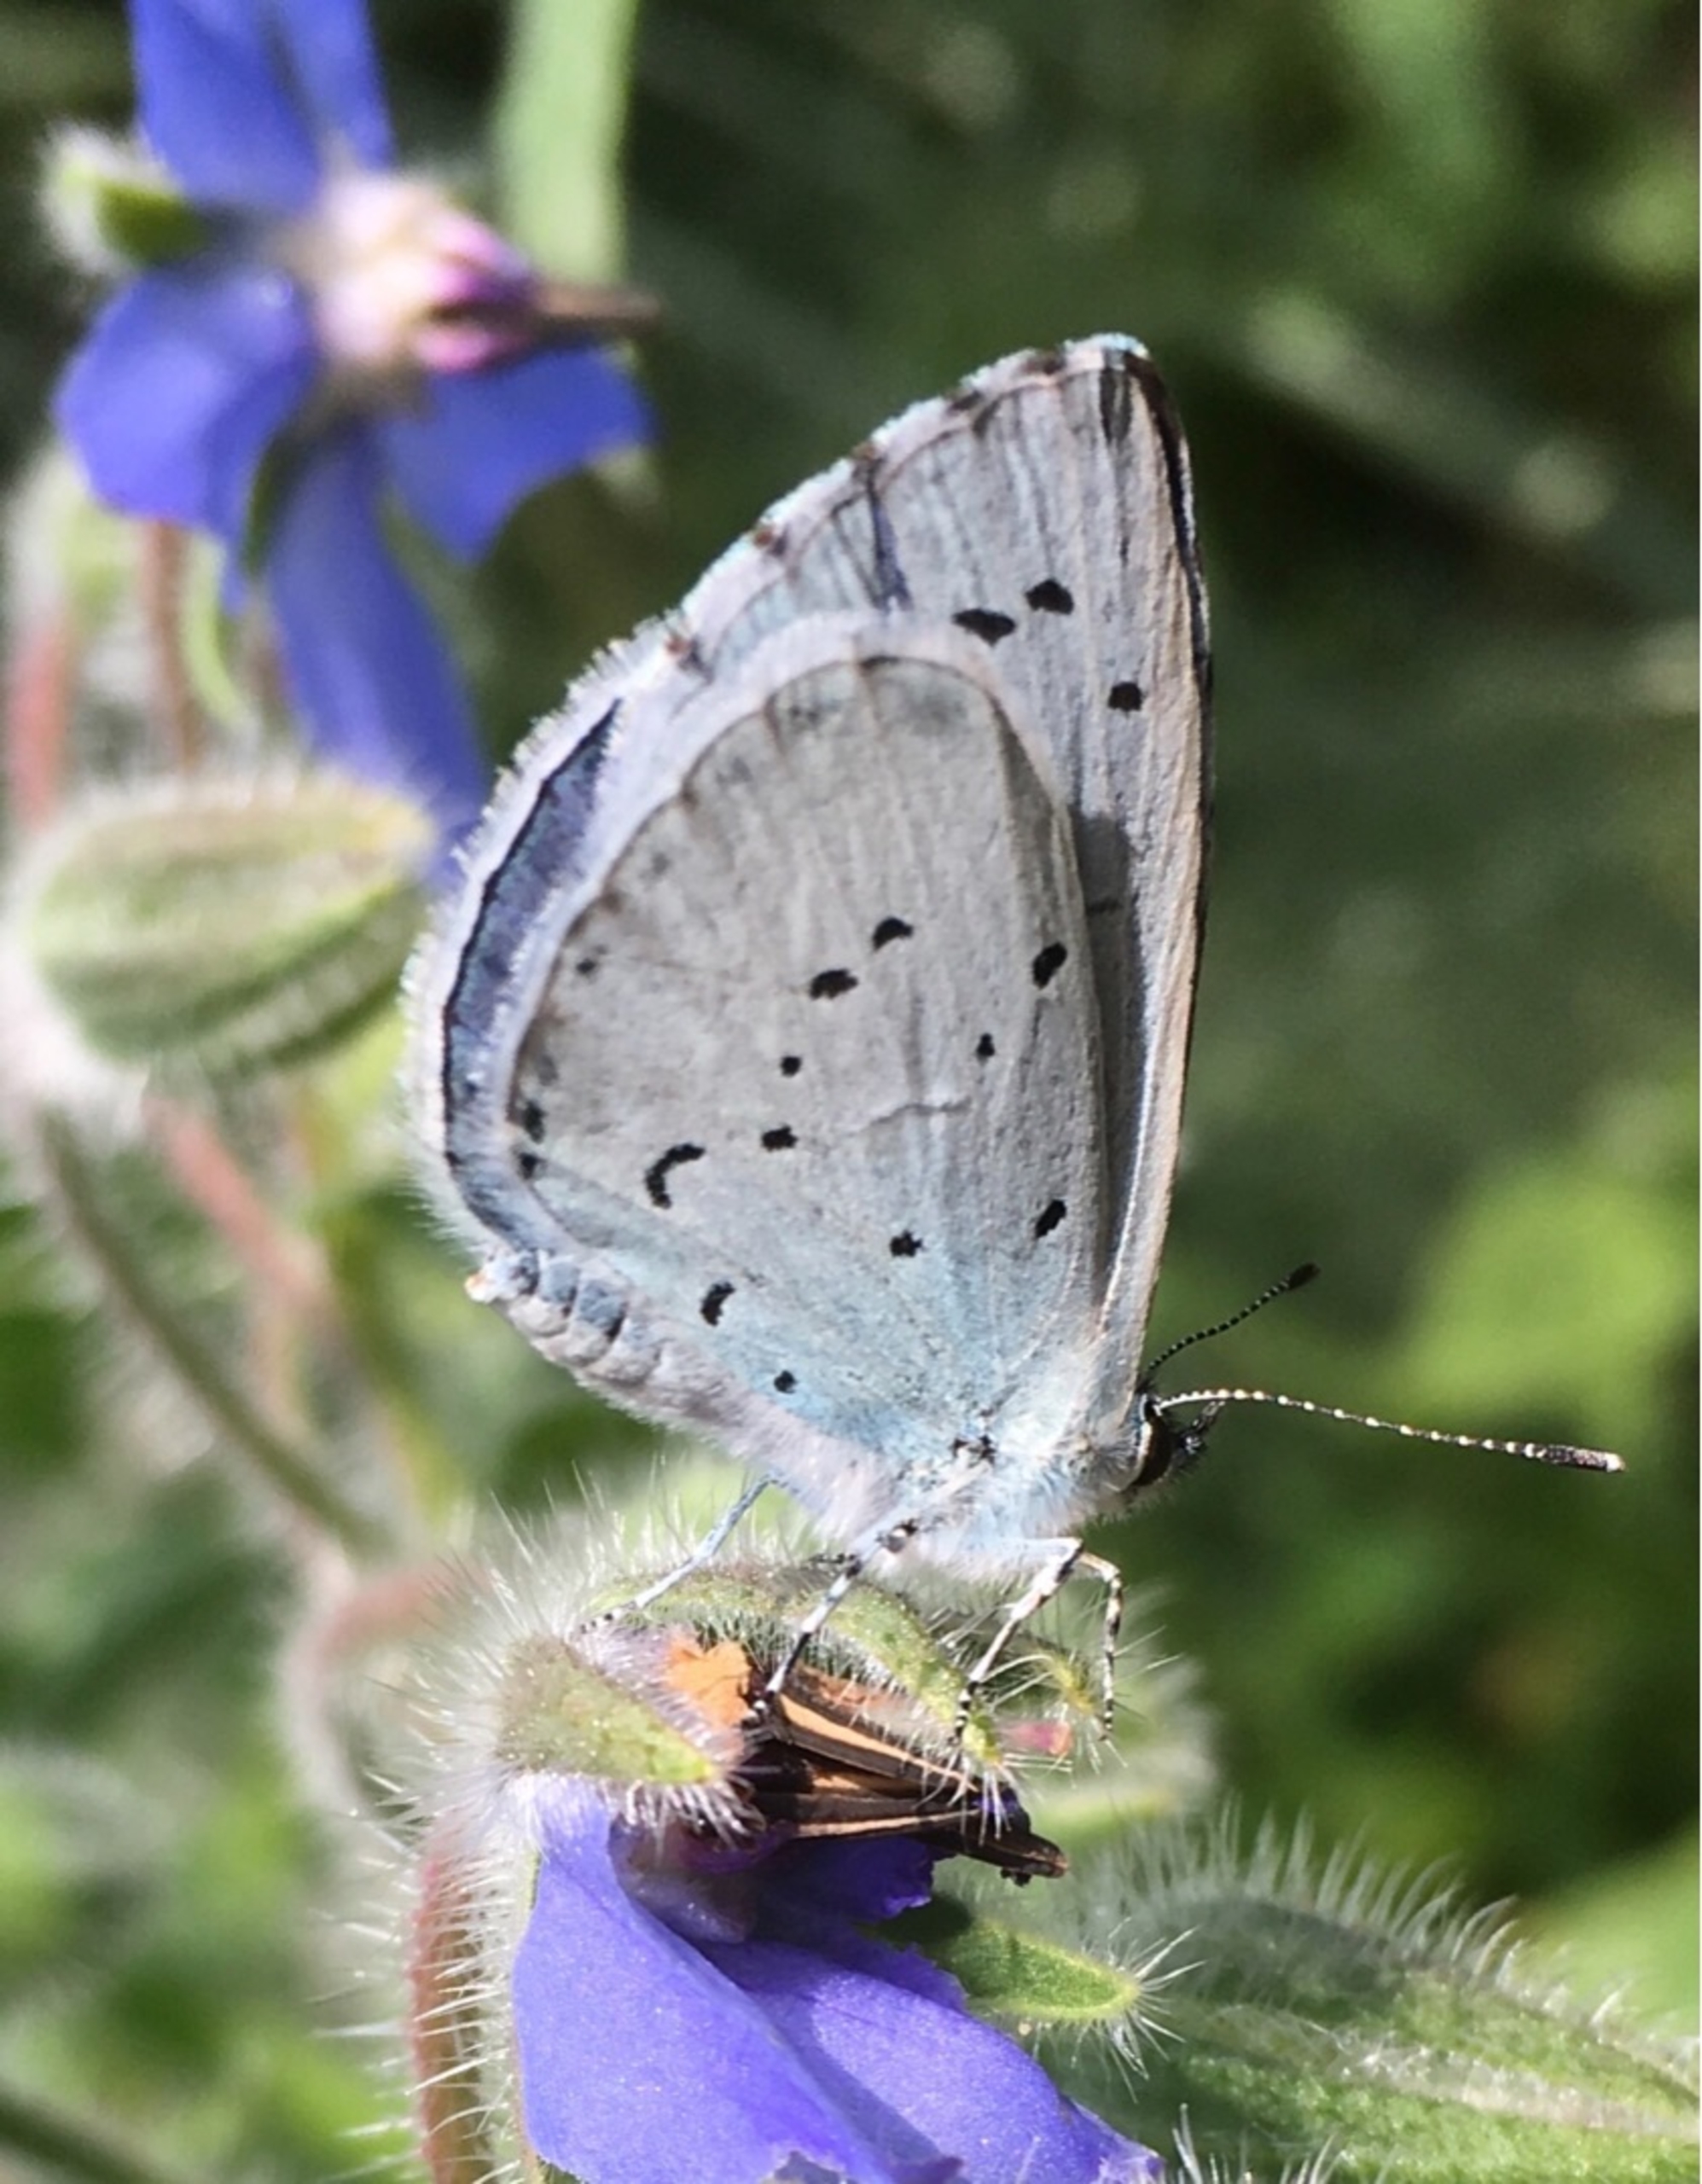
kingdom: Animalia
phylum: Arthropoda
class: Insecta
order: Lepidoptera
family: Lycaenidae
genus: Celastrina
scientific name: Celastrina argiolus
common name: Skovblåfugl
